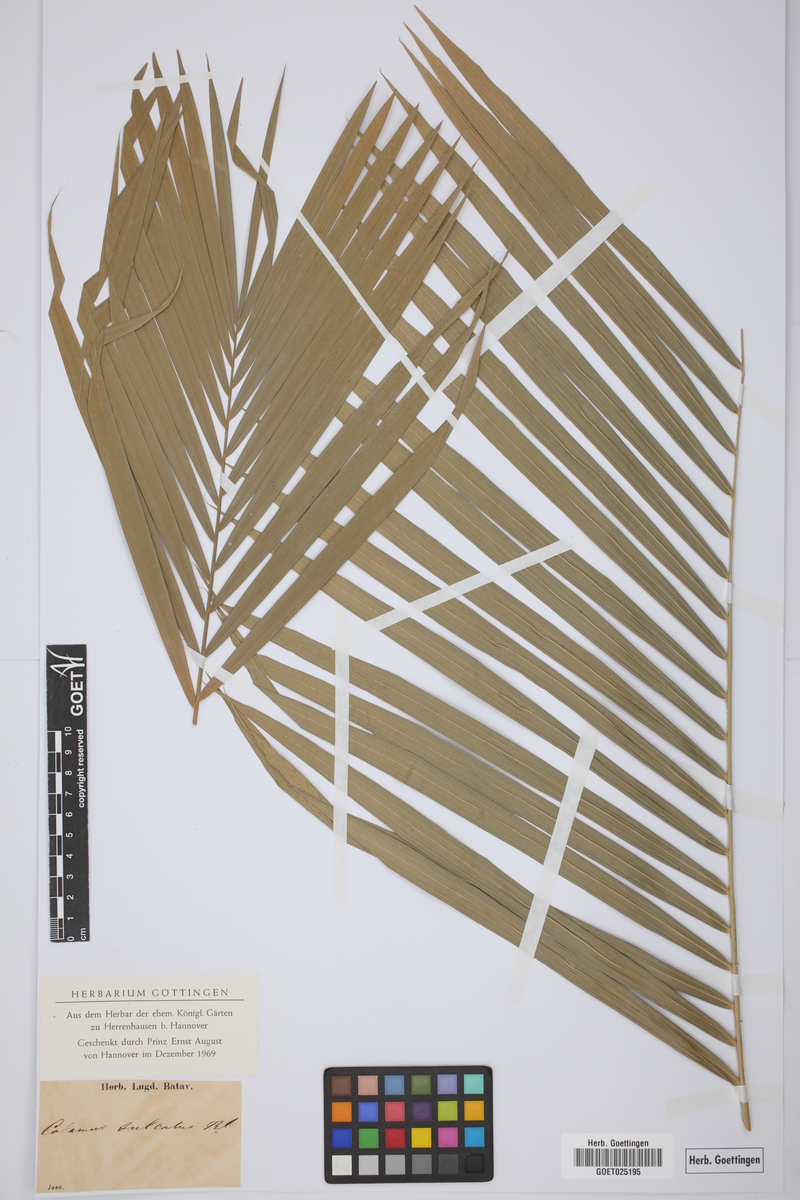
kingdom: Plantae
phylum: Tracheophyta
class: Liliopsida
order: Arecales
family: Arecaceae
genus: Calamus
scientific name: Calamus
